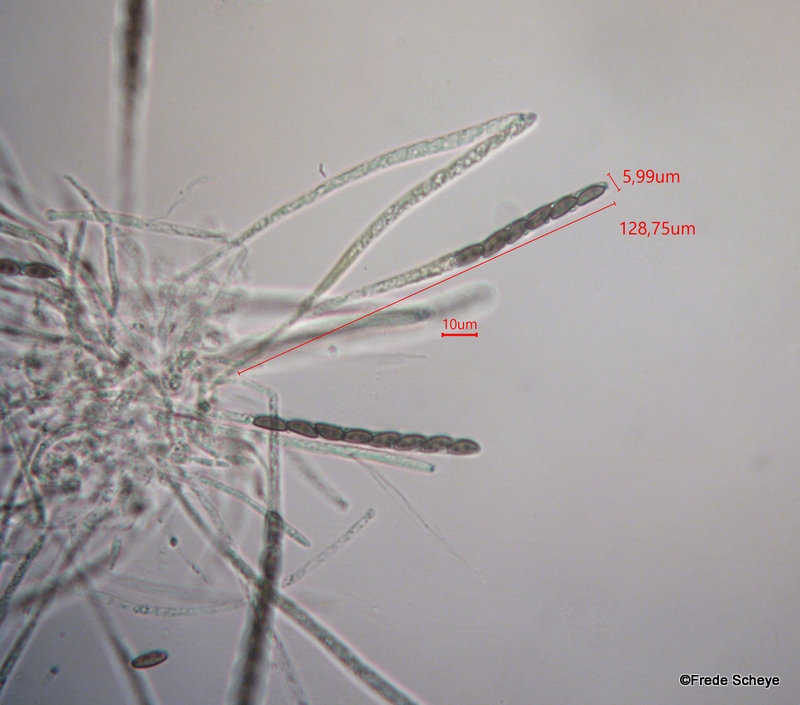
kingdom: Fungi
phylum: Ascomycota
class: Sordariomycetes
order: Xylariales
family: Hypoxylaceae
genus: Jackrogersella
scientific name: Jackrogersella cohaerens
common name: sammenflydende kulbær
